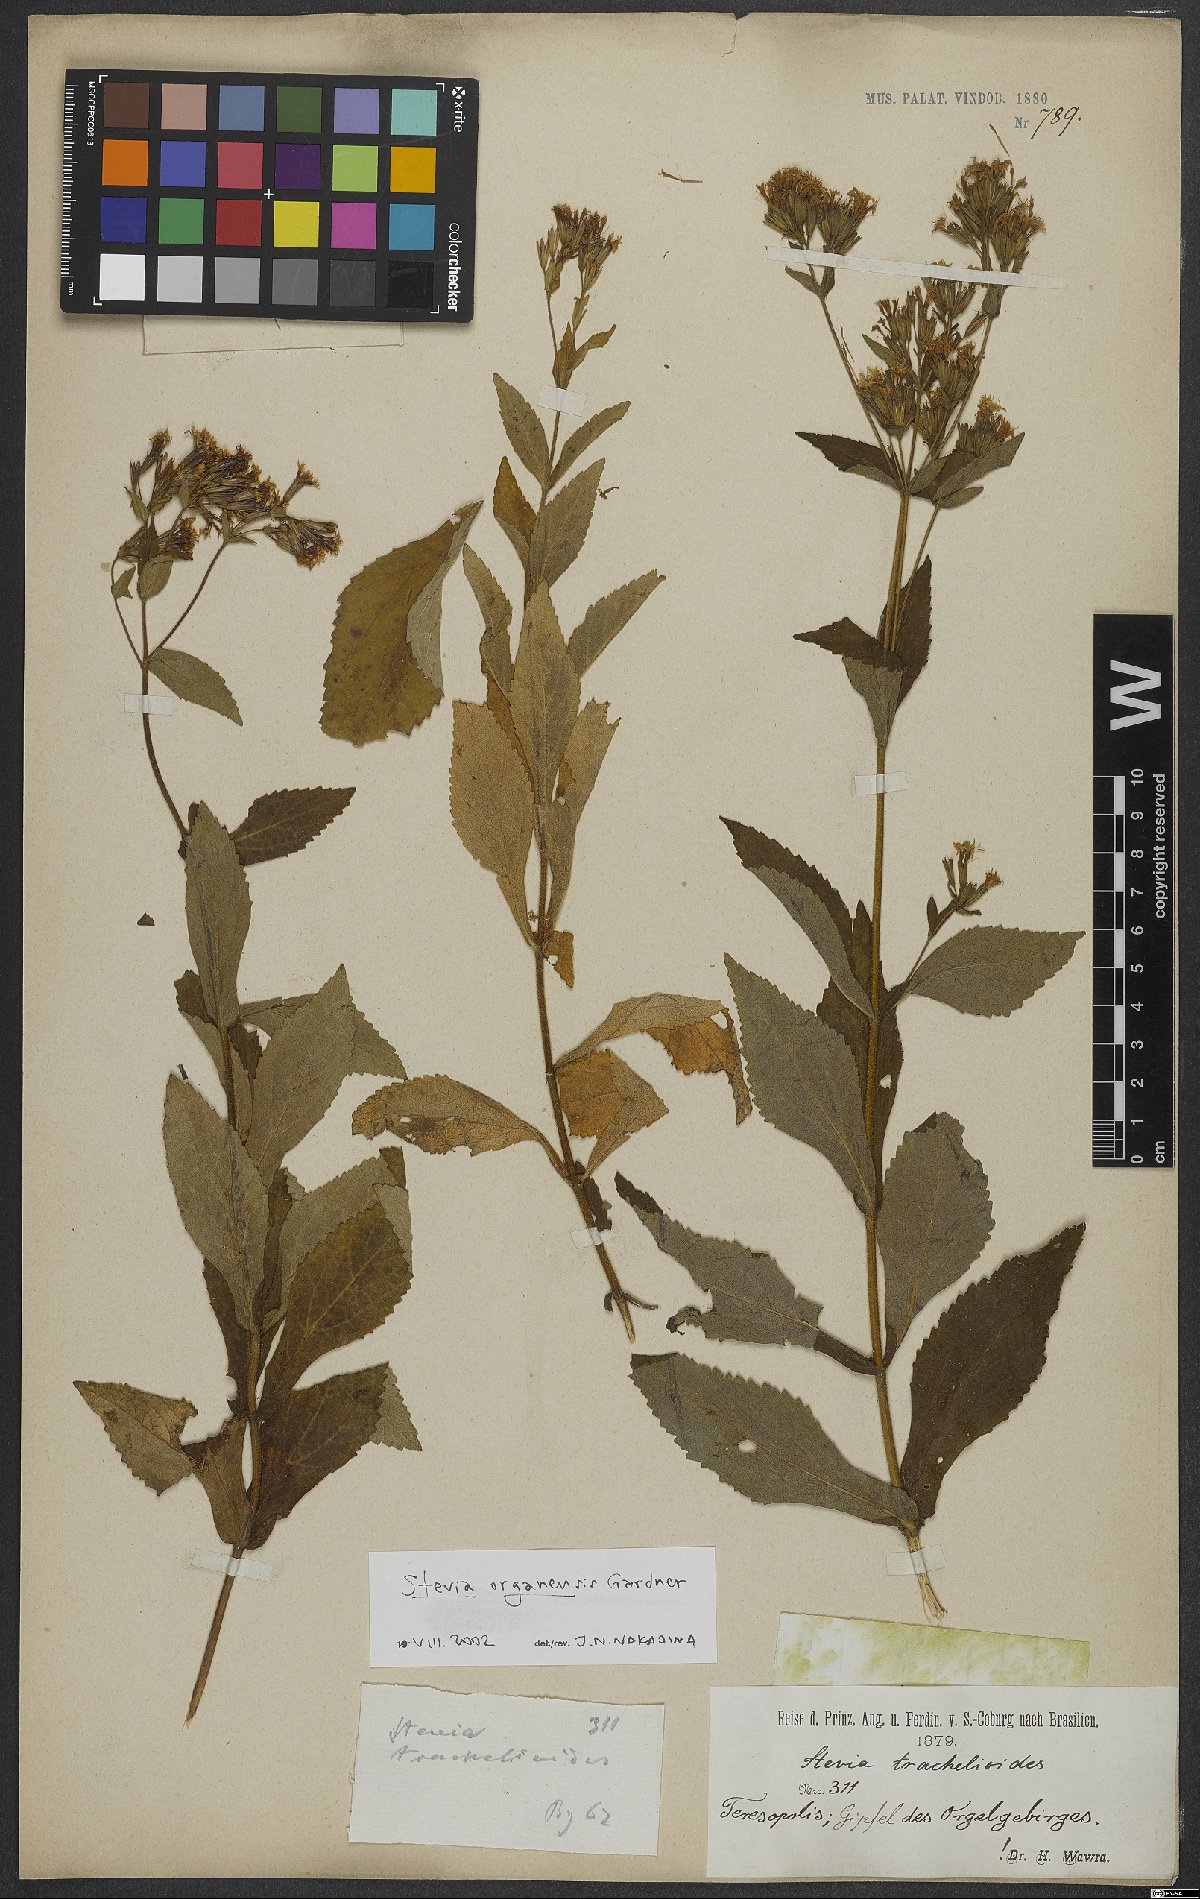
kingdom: Plantae
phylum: Tracheophyta
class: Magnoliopsida
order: Asterales
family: Asteraceae
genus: Stevia
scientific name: Stevia organensis
